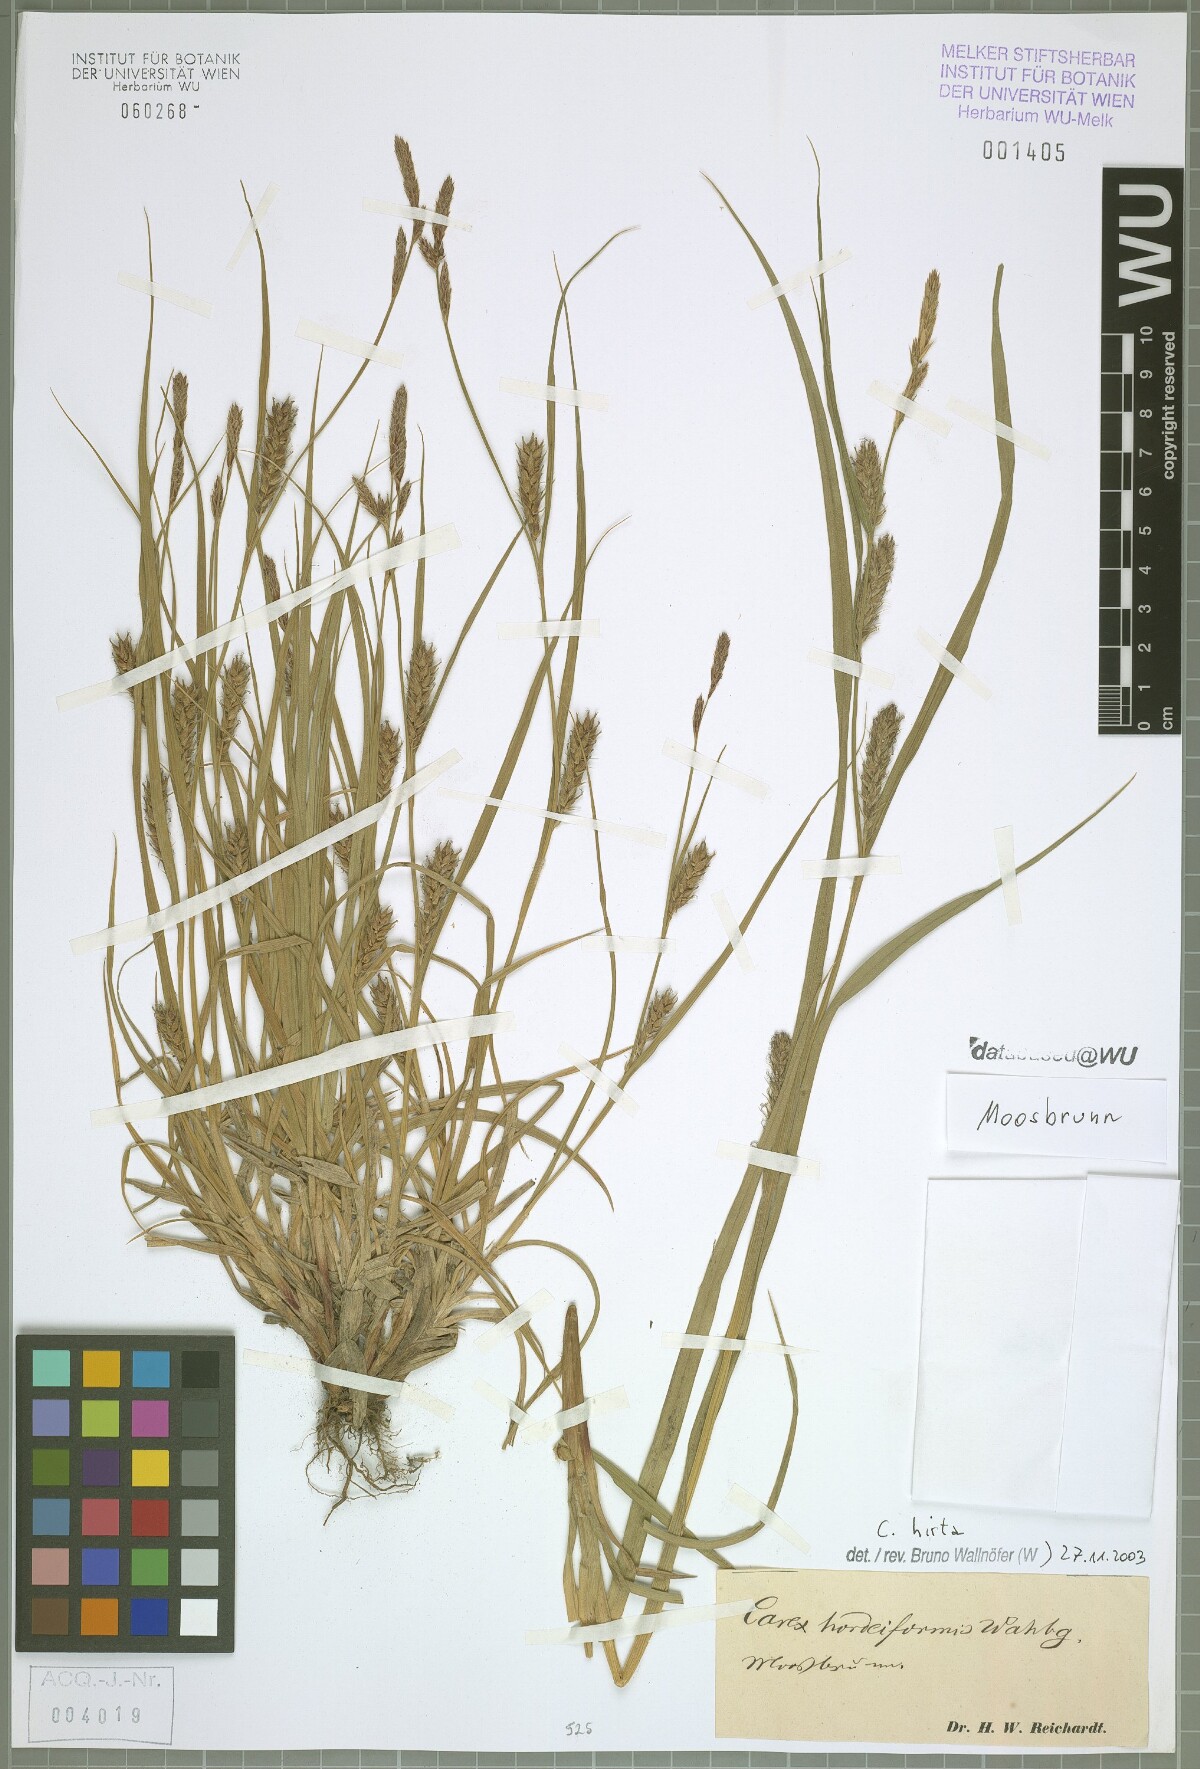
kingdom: Plantae
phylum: Tracheophyta
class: Liliopsida
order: Poales
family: Cyperaceae
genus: Carex
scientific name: Carex hirta
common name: Hairy sedge
